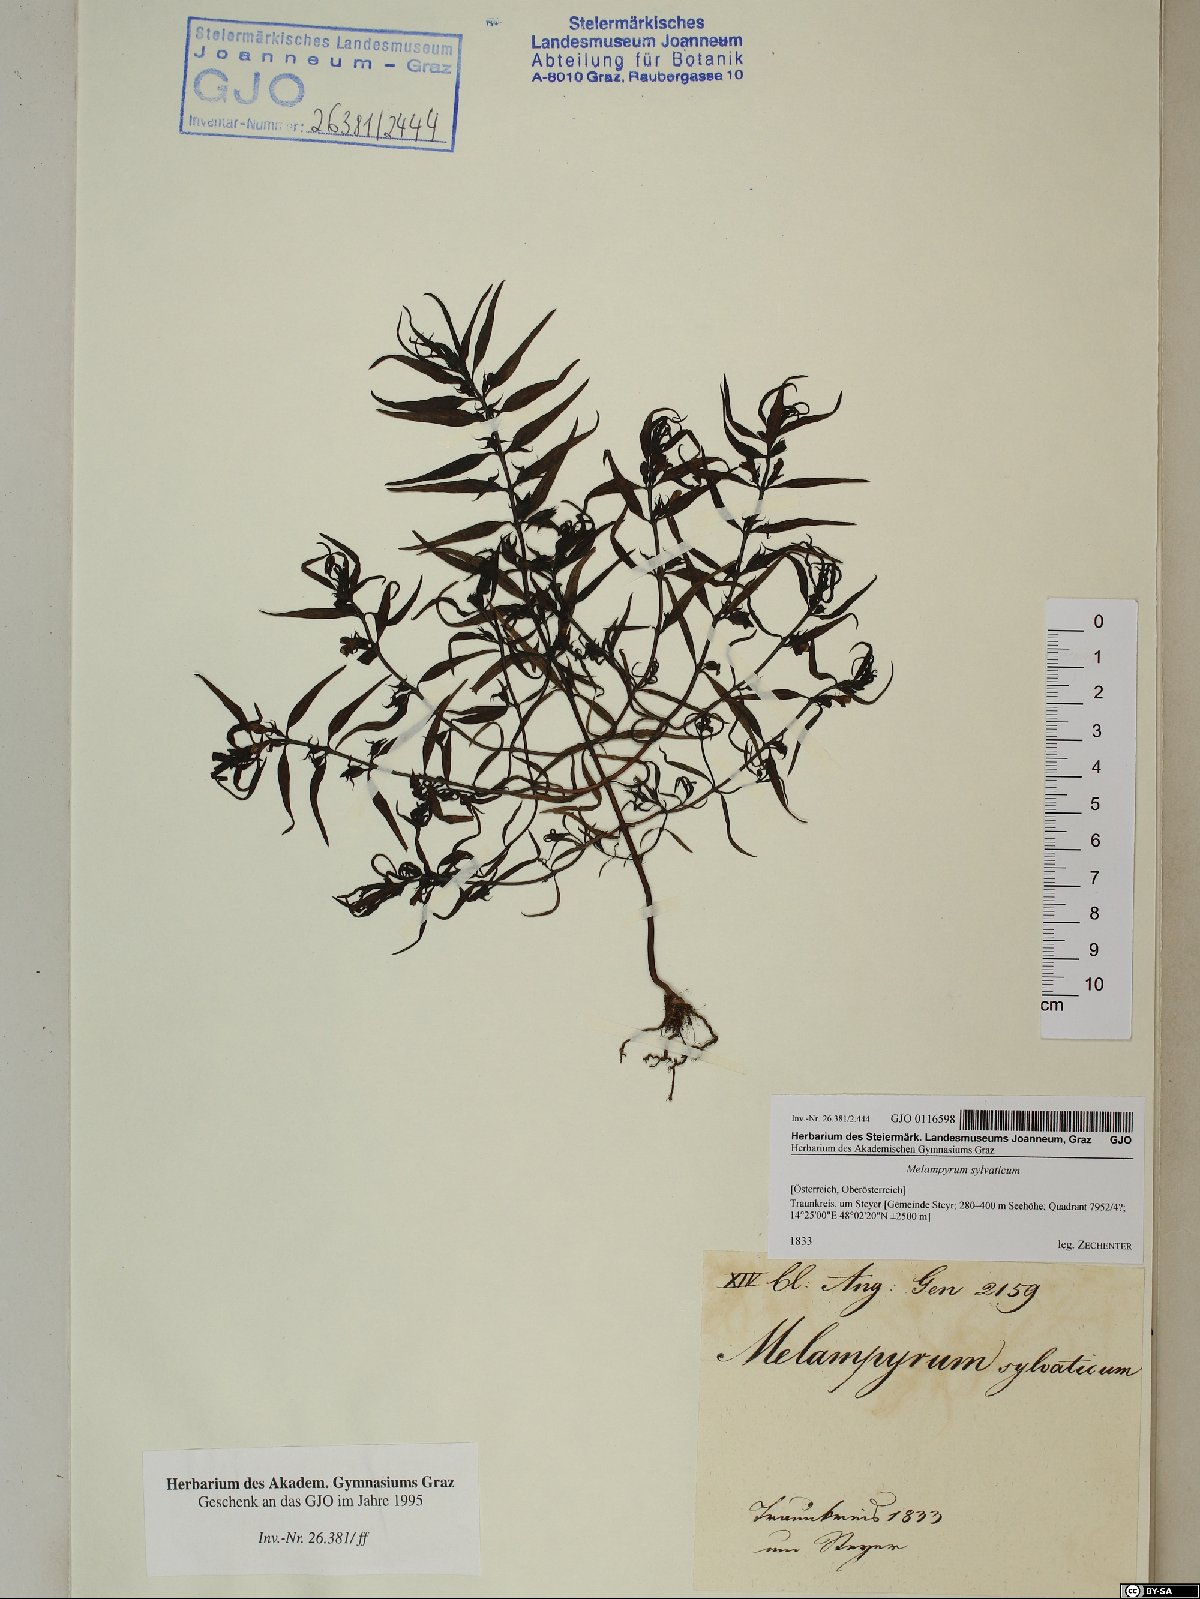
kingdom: Plantae
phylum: Tracheophyta
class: Magnoliopsida
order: Lamiales
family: Orobanchaceae
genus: Melampyrum
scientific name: Melampyrum sylvaticum
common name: Small cow-wheat
